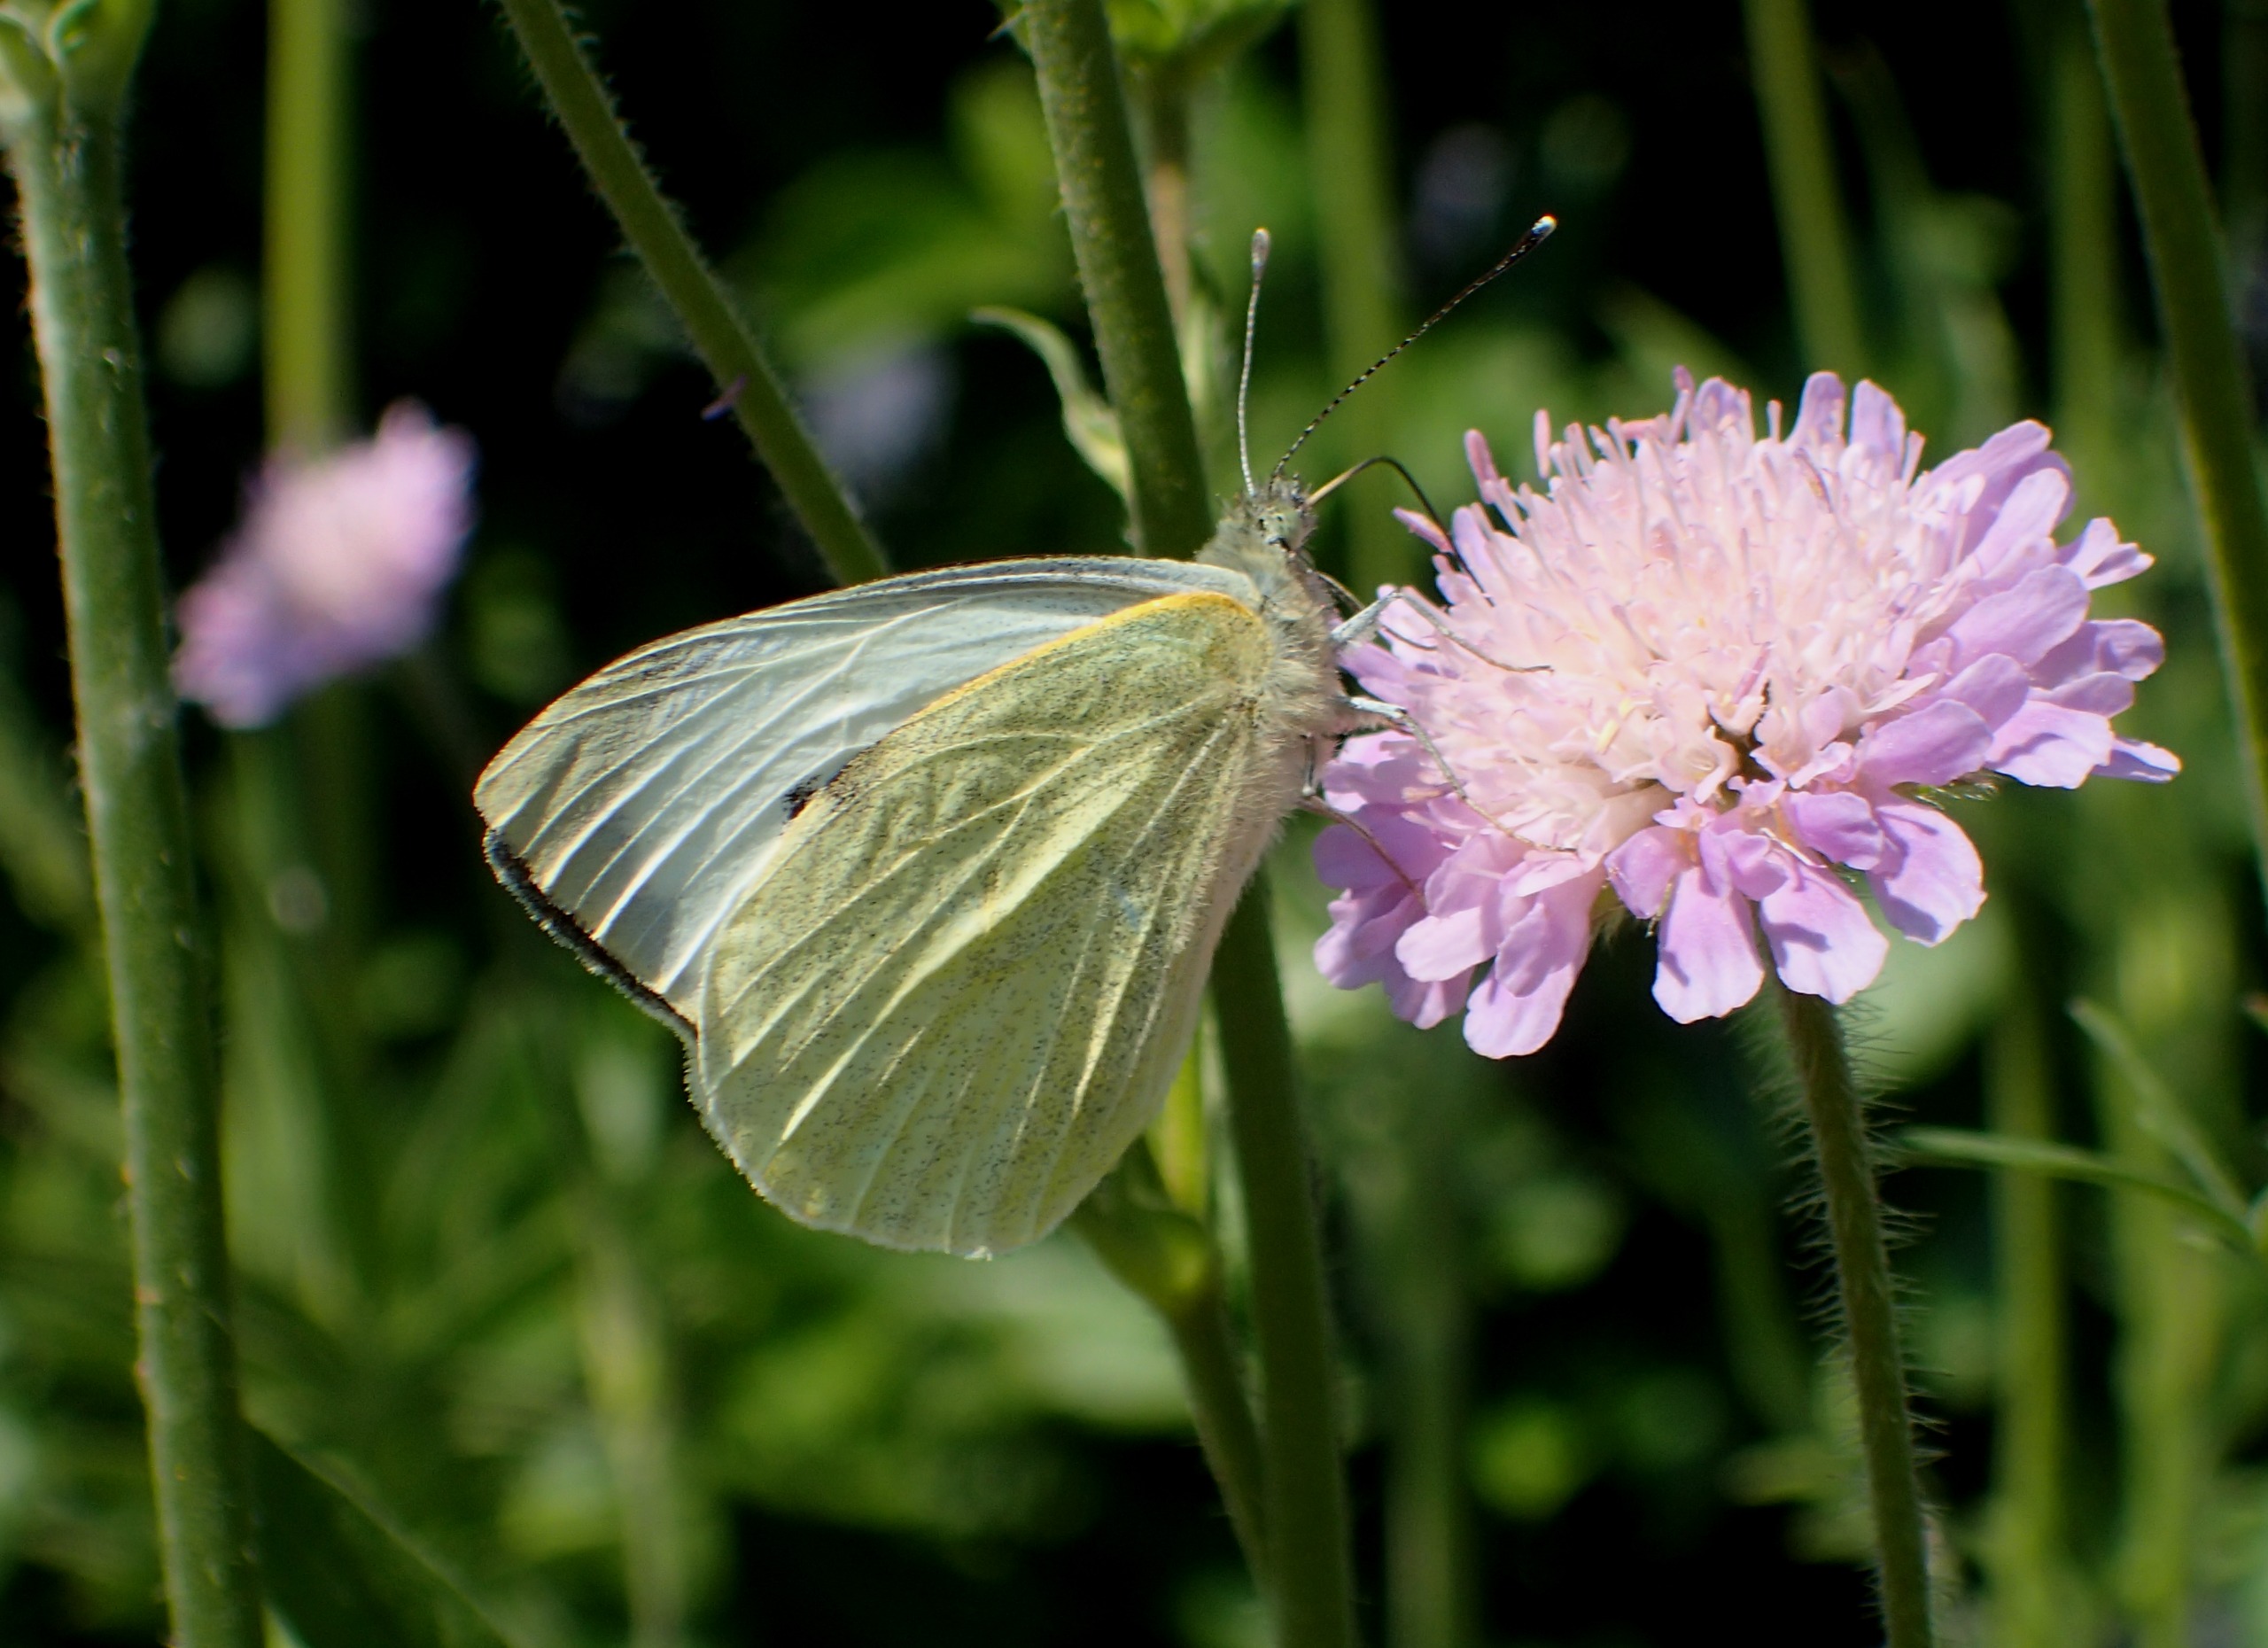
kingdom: Animalia
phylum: Arthropoda
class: Insecta
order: Lepidoptera
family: Pieridae
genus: Pieris
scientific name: Pieris brassicae
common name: Stor kålsommerfugl
